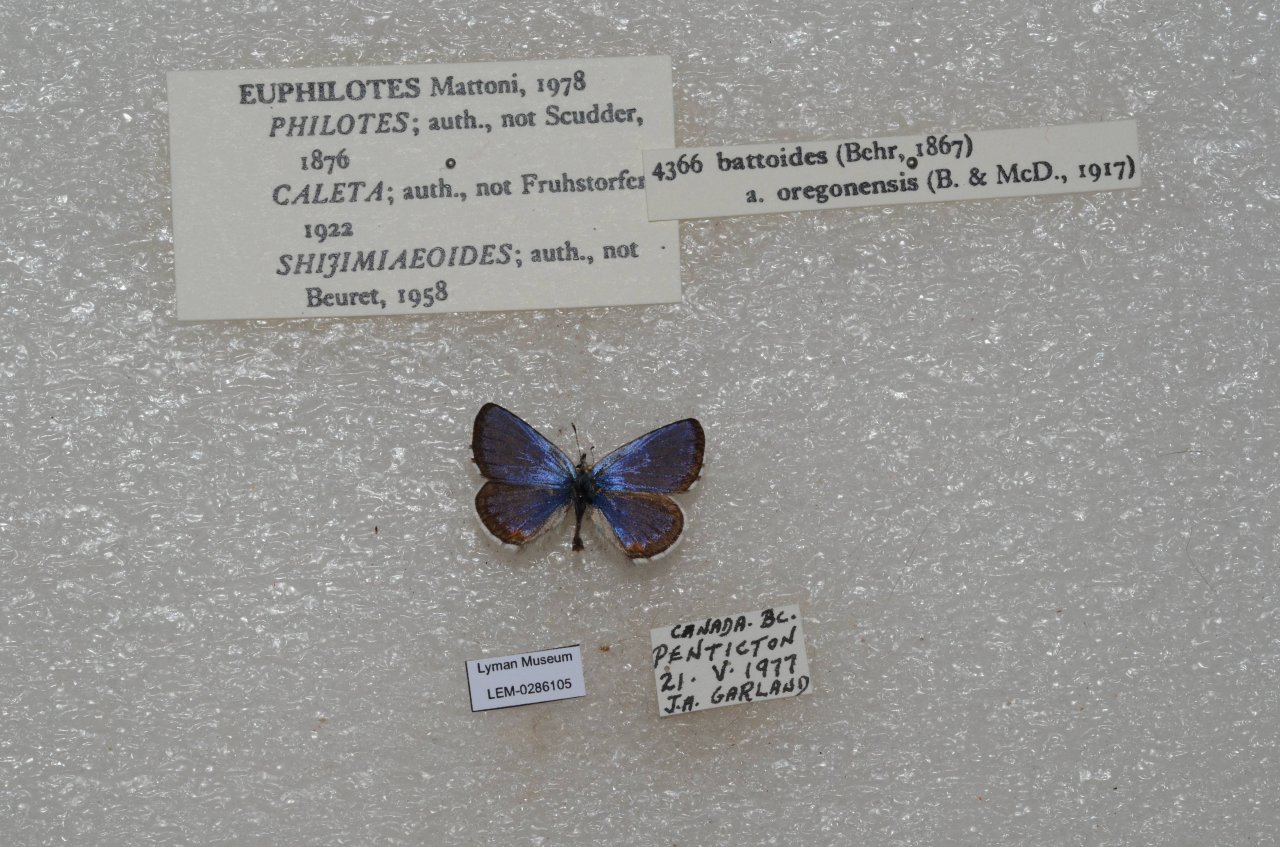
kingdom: Animalia
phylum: Arthropoda
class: Insecta
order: Lepidoptera
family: Lycaenidae
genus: Euphilotes
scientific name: Euphilotes battoides
